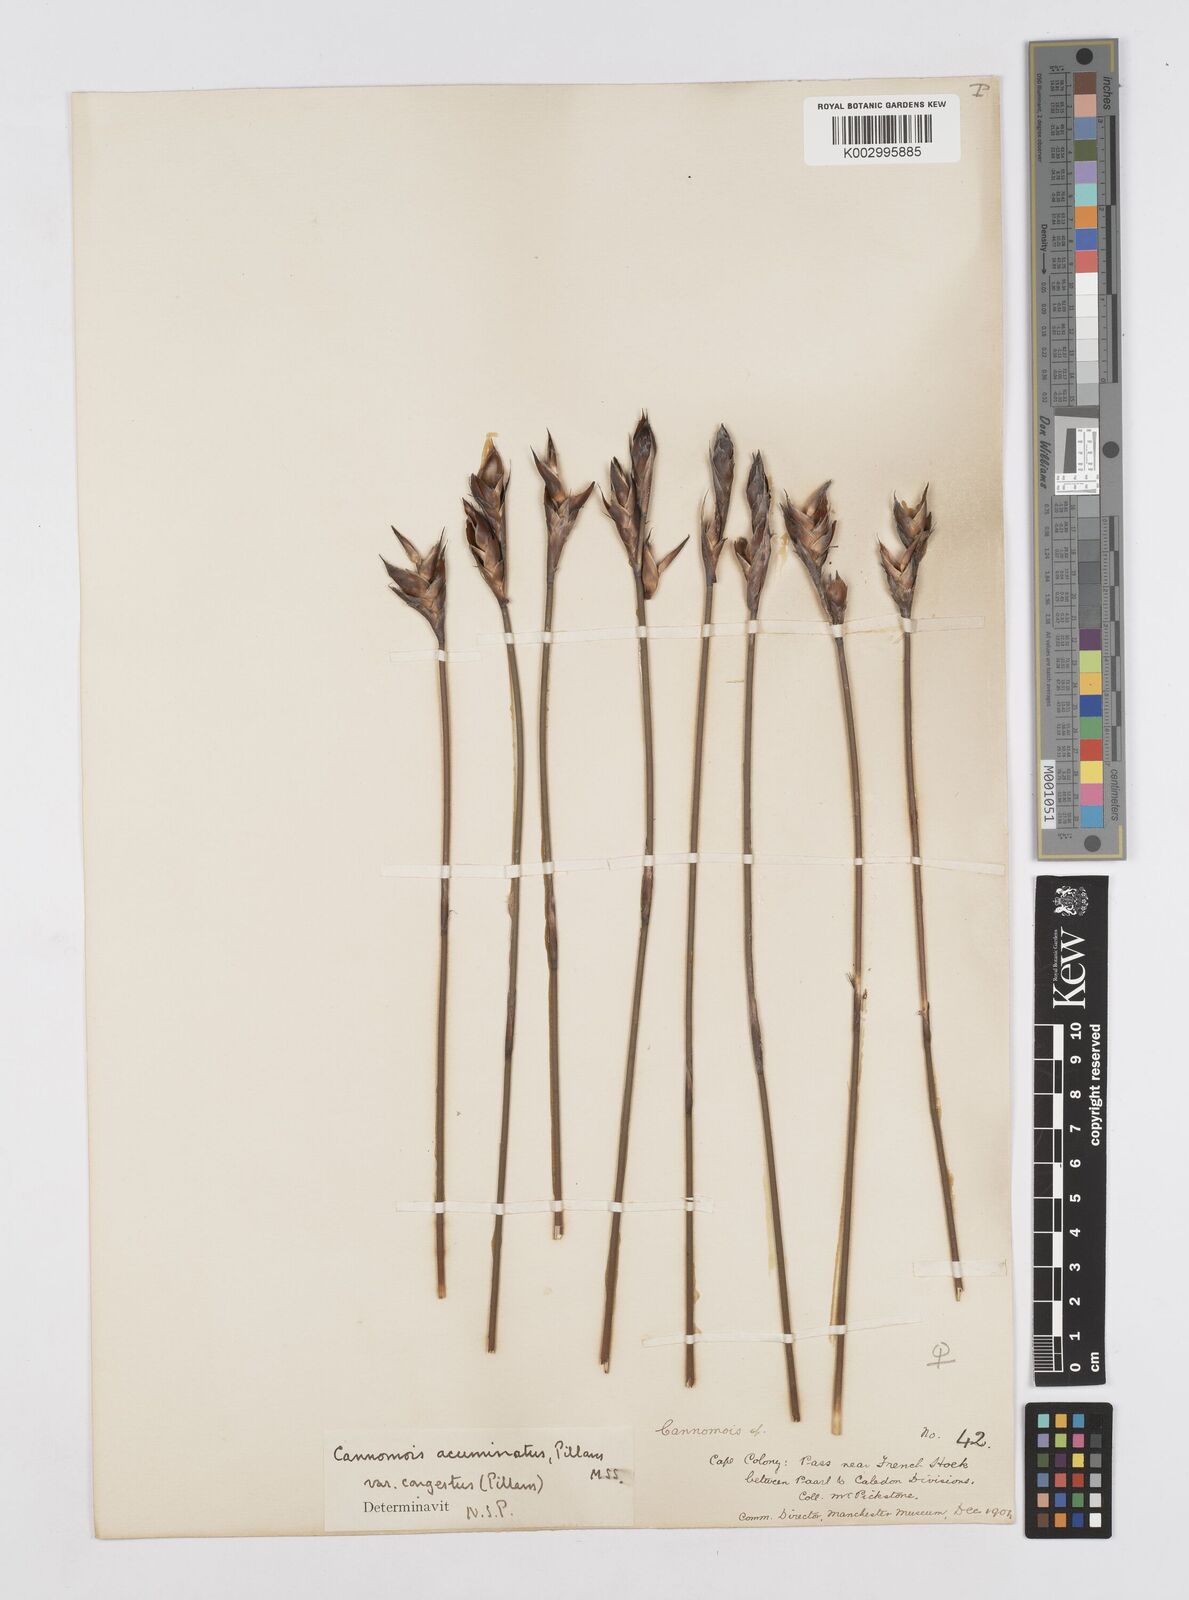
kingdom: Plantae
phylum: Tracheophyta
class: Liliopsida
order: Poales
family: Restionaceae
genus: Cannomois
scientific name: Cannomois congesta
